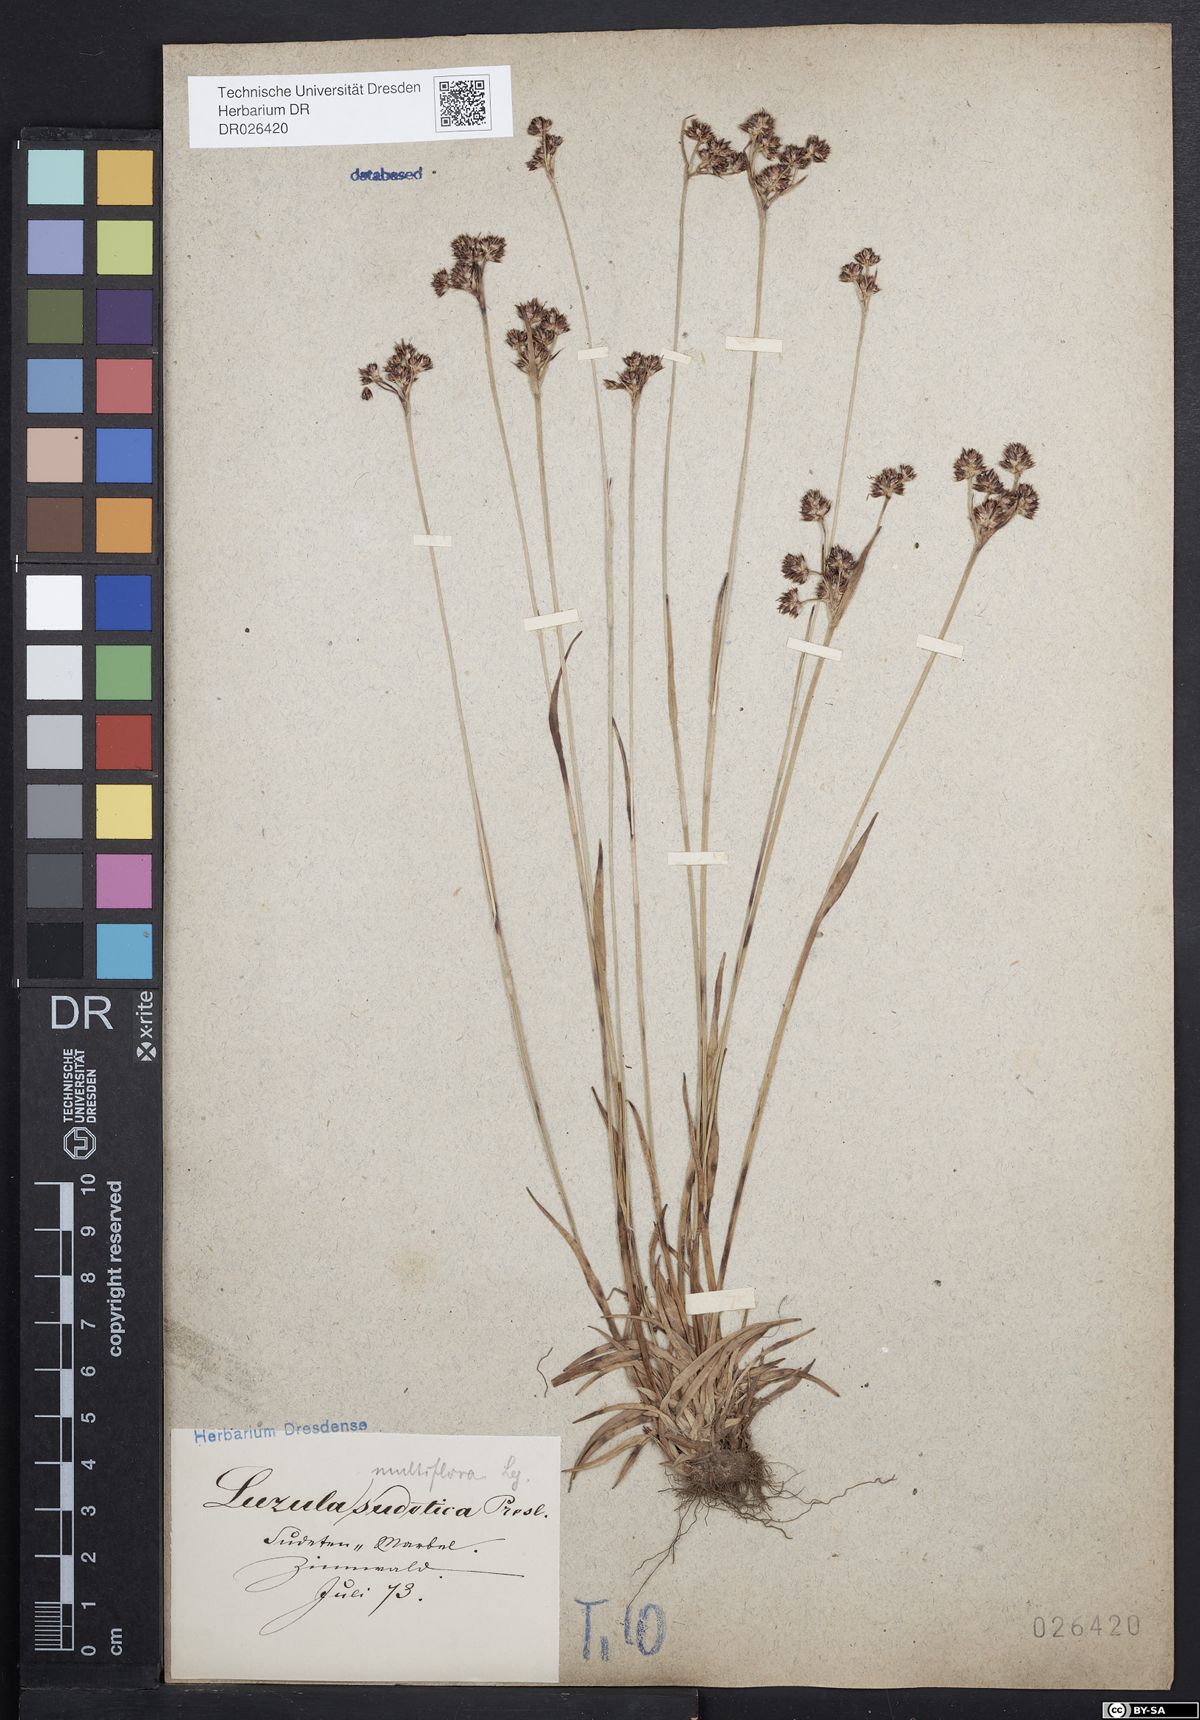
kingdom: Plantae
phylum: Tracheophyta
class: Liliopsida
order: Poales
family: Juncaceae
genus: Luzula
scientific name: Luzula multiflora
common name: Heath wood-rush
